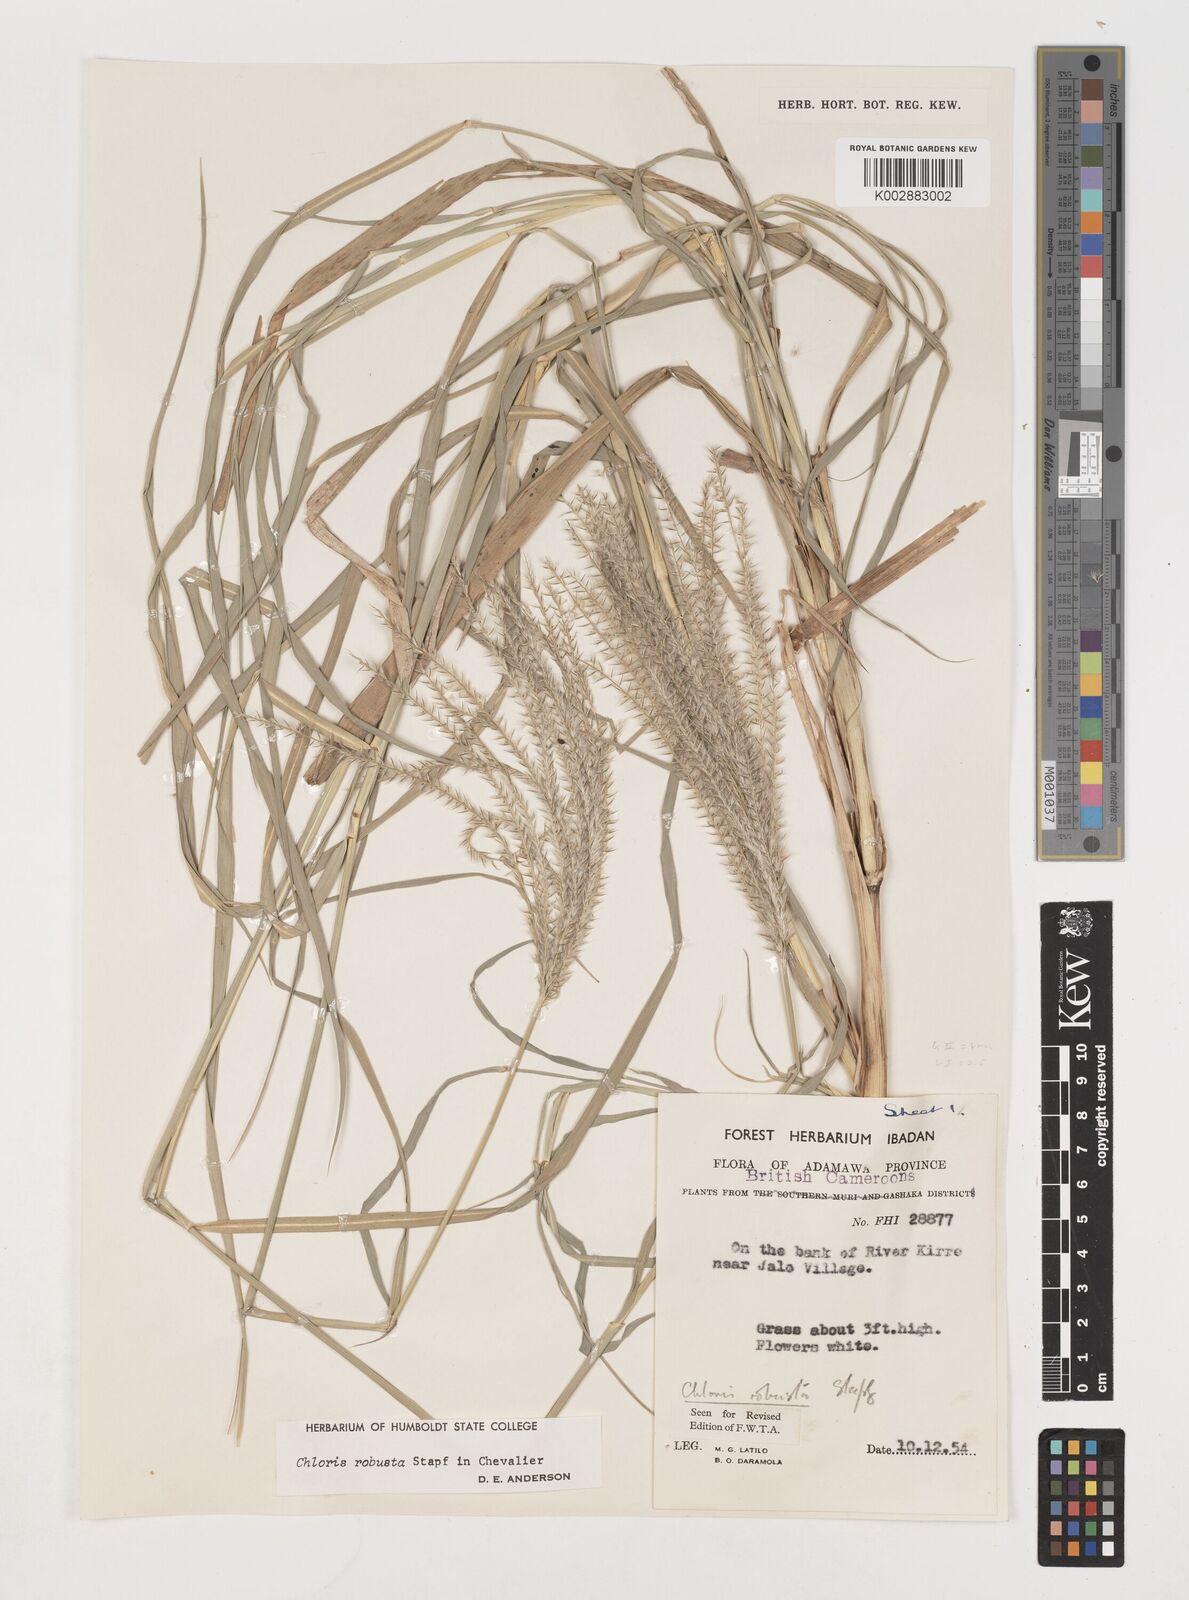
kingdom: Plantae
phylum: Tracheophyta
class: Liliopsida
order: Poales
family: Poaceae
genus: Chloris
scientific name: Chloris robusta
